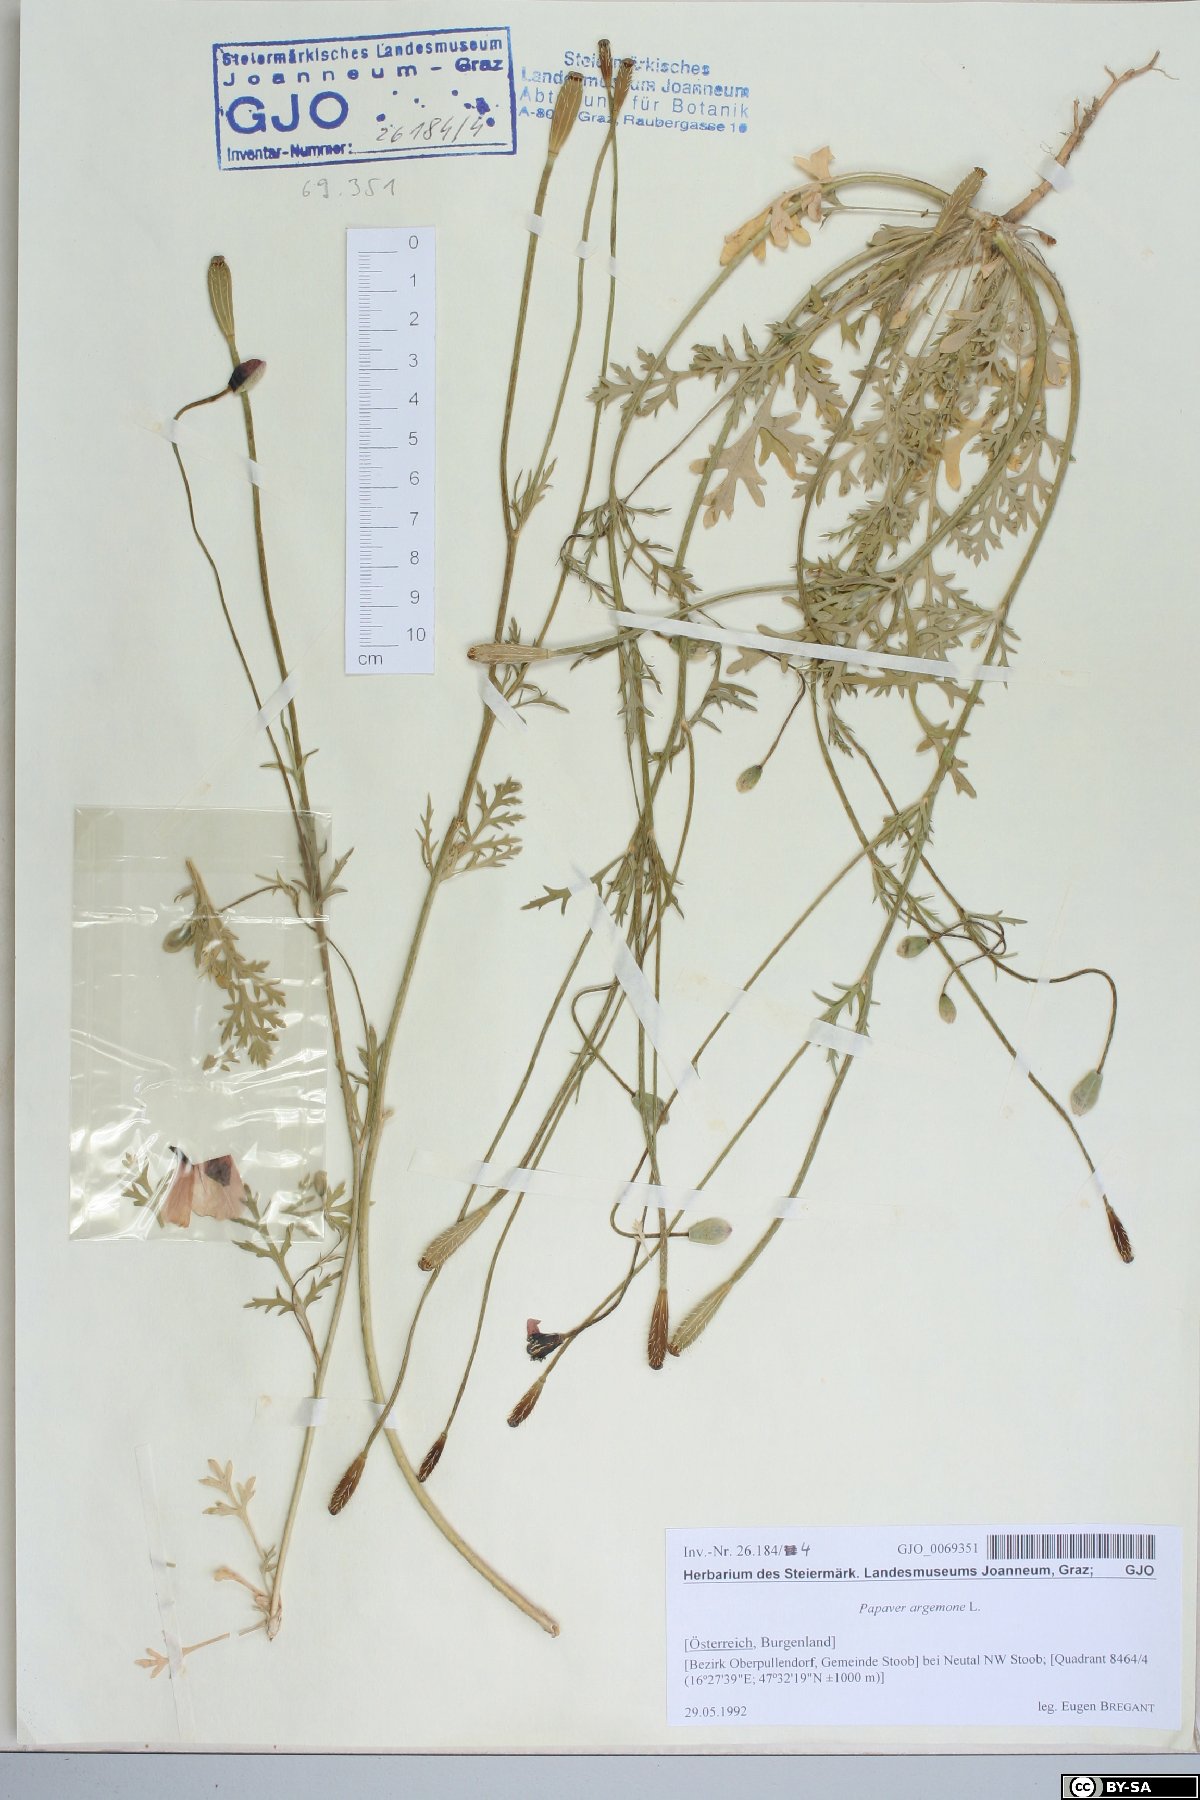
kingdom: Plantae
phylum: Tracheophyta
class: Magnoliopsida
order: Ranunculales
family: Papaveraceae
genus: Roemeria
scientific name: Roemeria argemone
